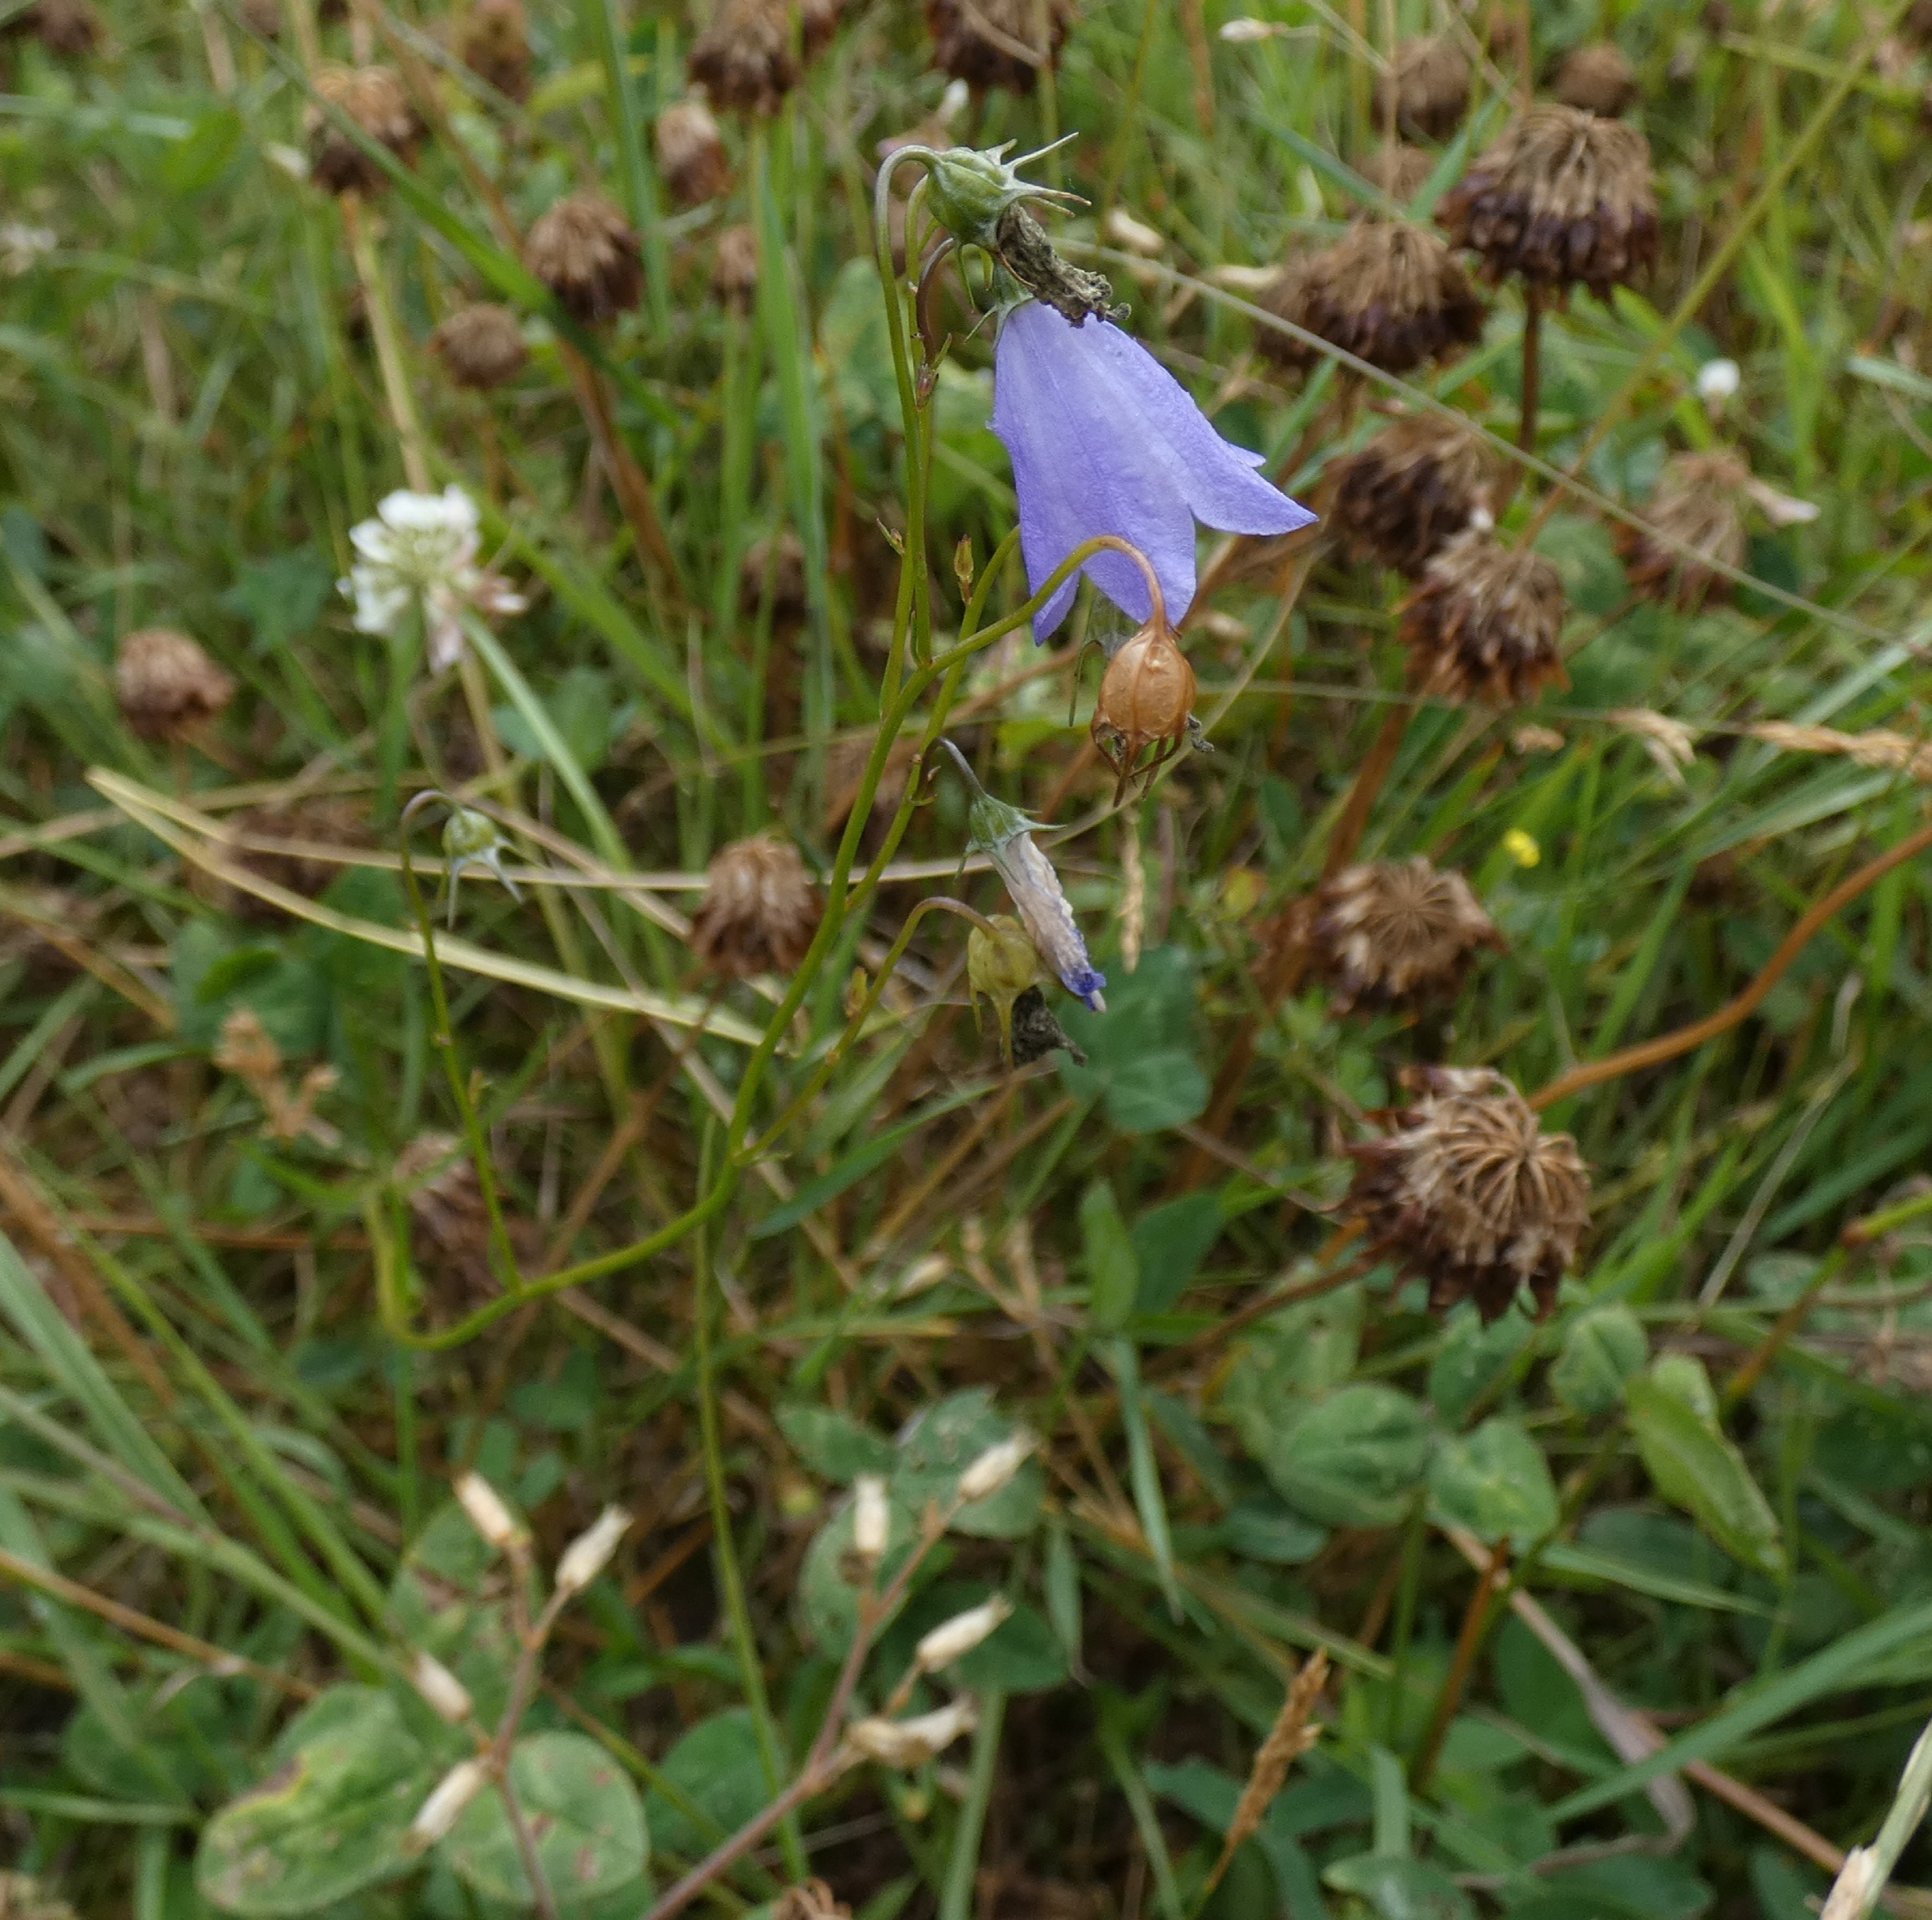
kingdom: Plantae
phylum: Tracheophyta
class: Magnoliopsida
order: Asterales
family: Campanulaceae
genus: Campanula
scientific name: Campanula rotundifolia
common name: Liden klokke
